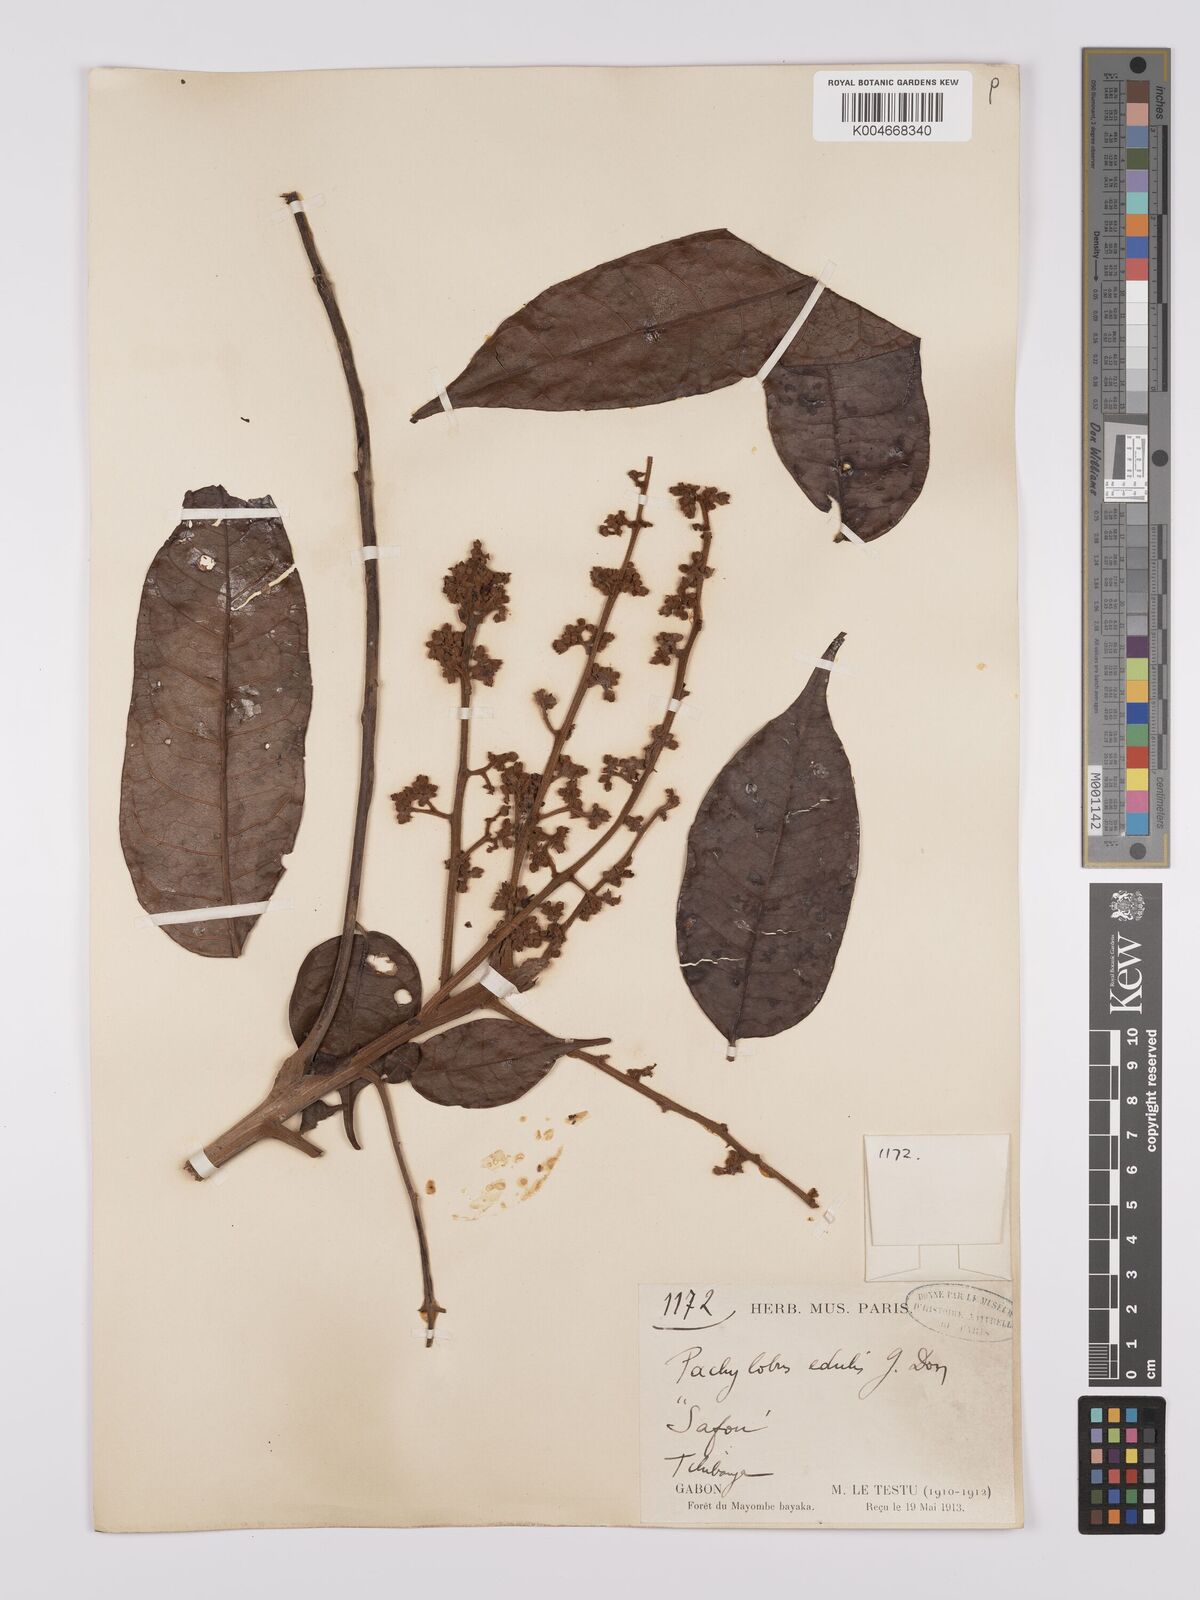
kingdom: Plantae
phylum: Tracheophyta
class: Magnoliopsida
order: Sapindales
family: Burseraceae
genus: Pachylobus
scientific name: Pachylobus edulis
